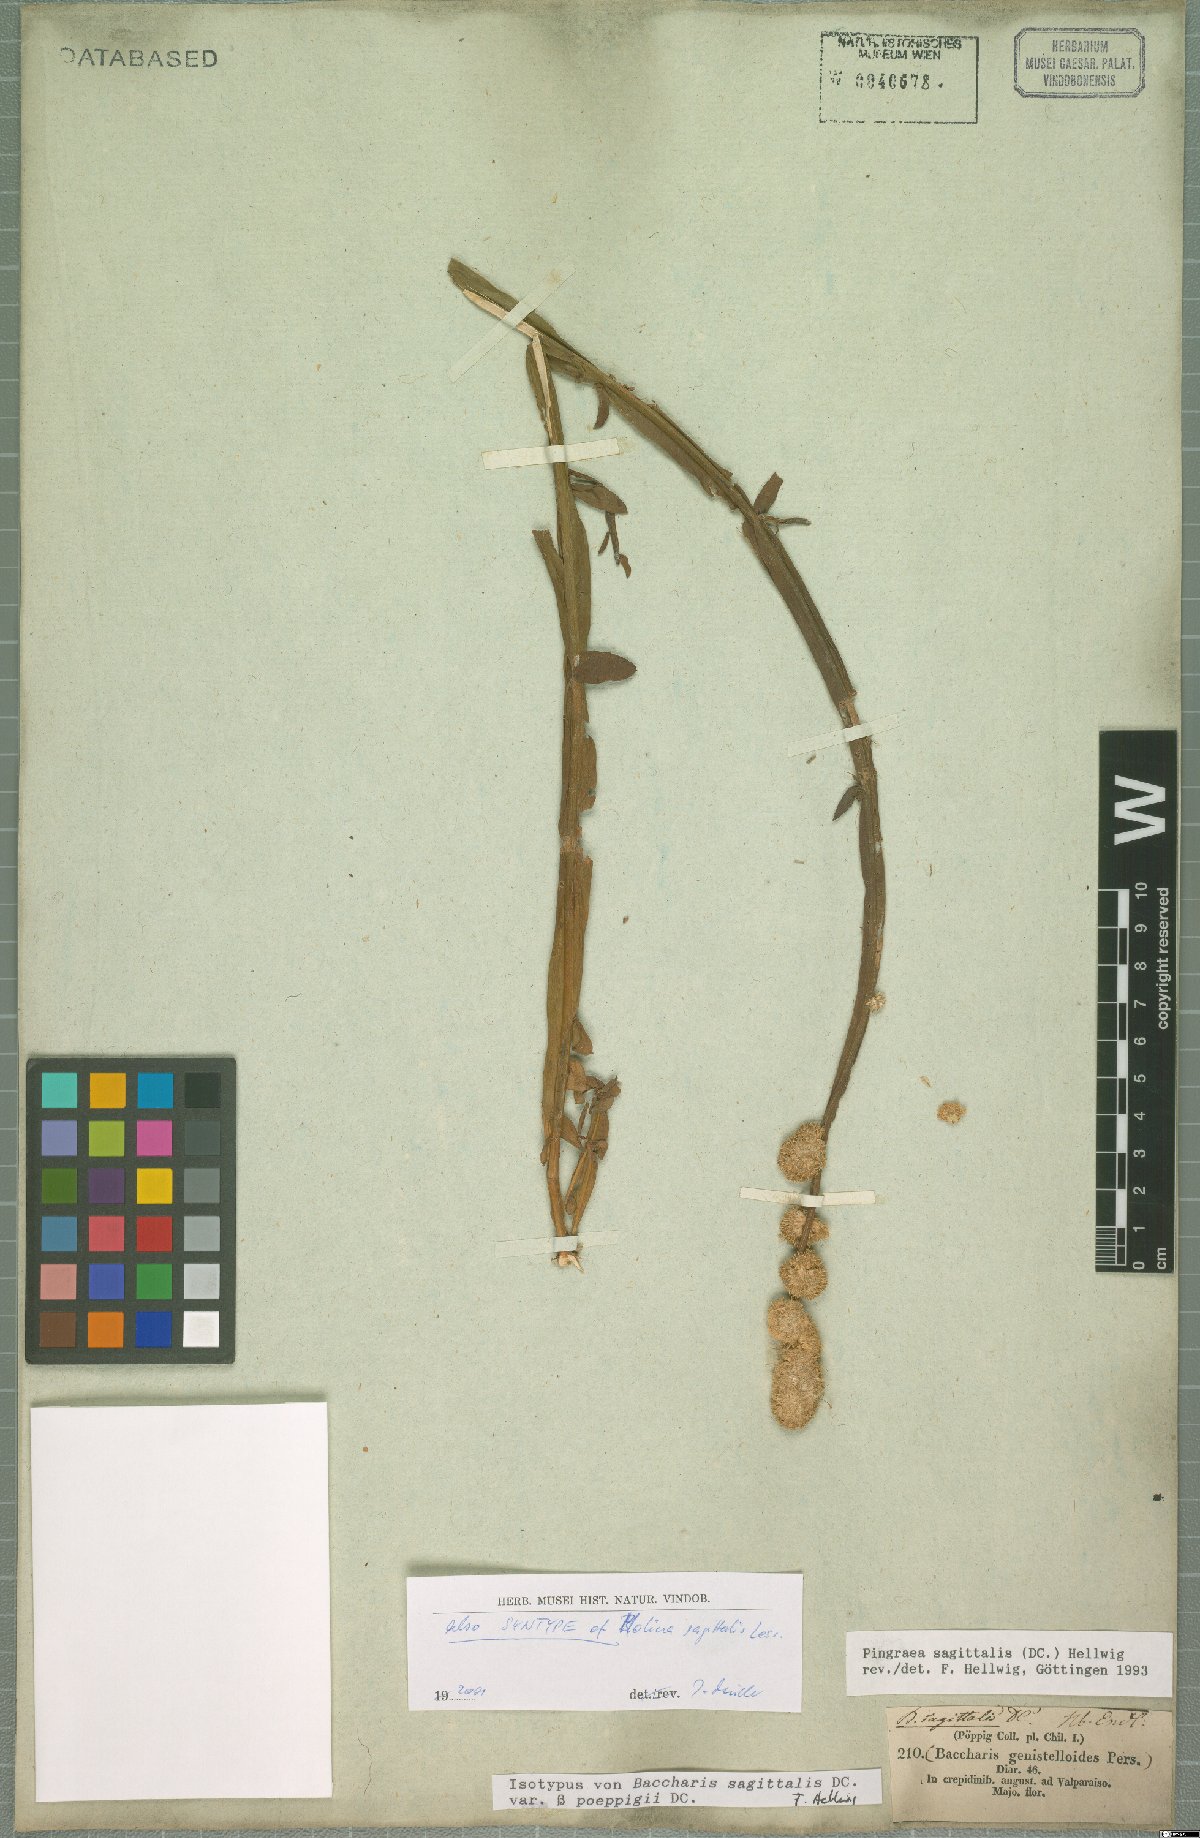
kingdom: Plantae
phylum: Tracheophyta
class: Magnoliopsida
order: Asterales
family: Asteraceae
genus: Baccharis
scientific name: Baccharis sagittalis
